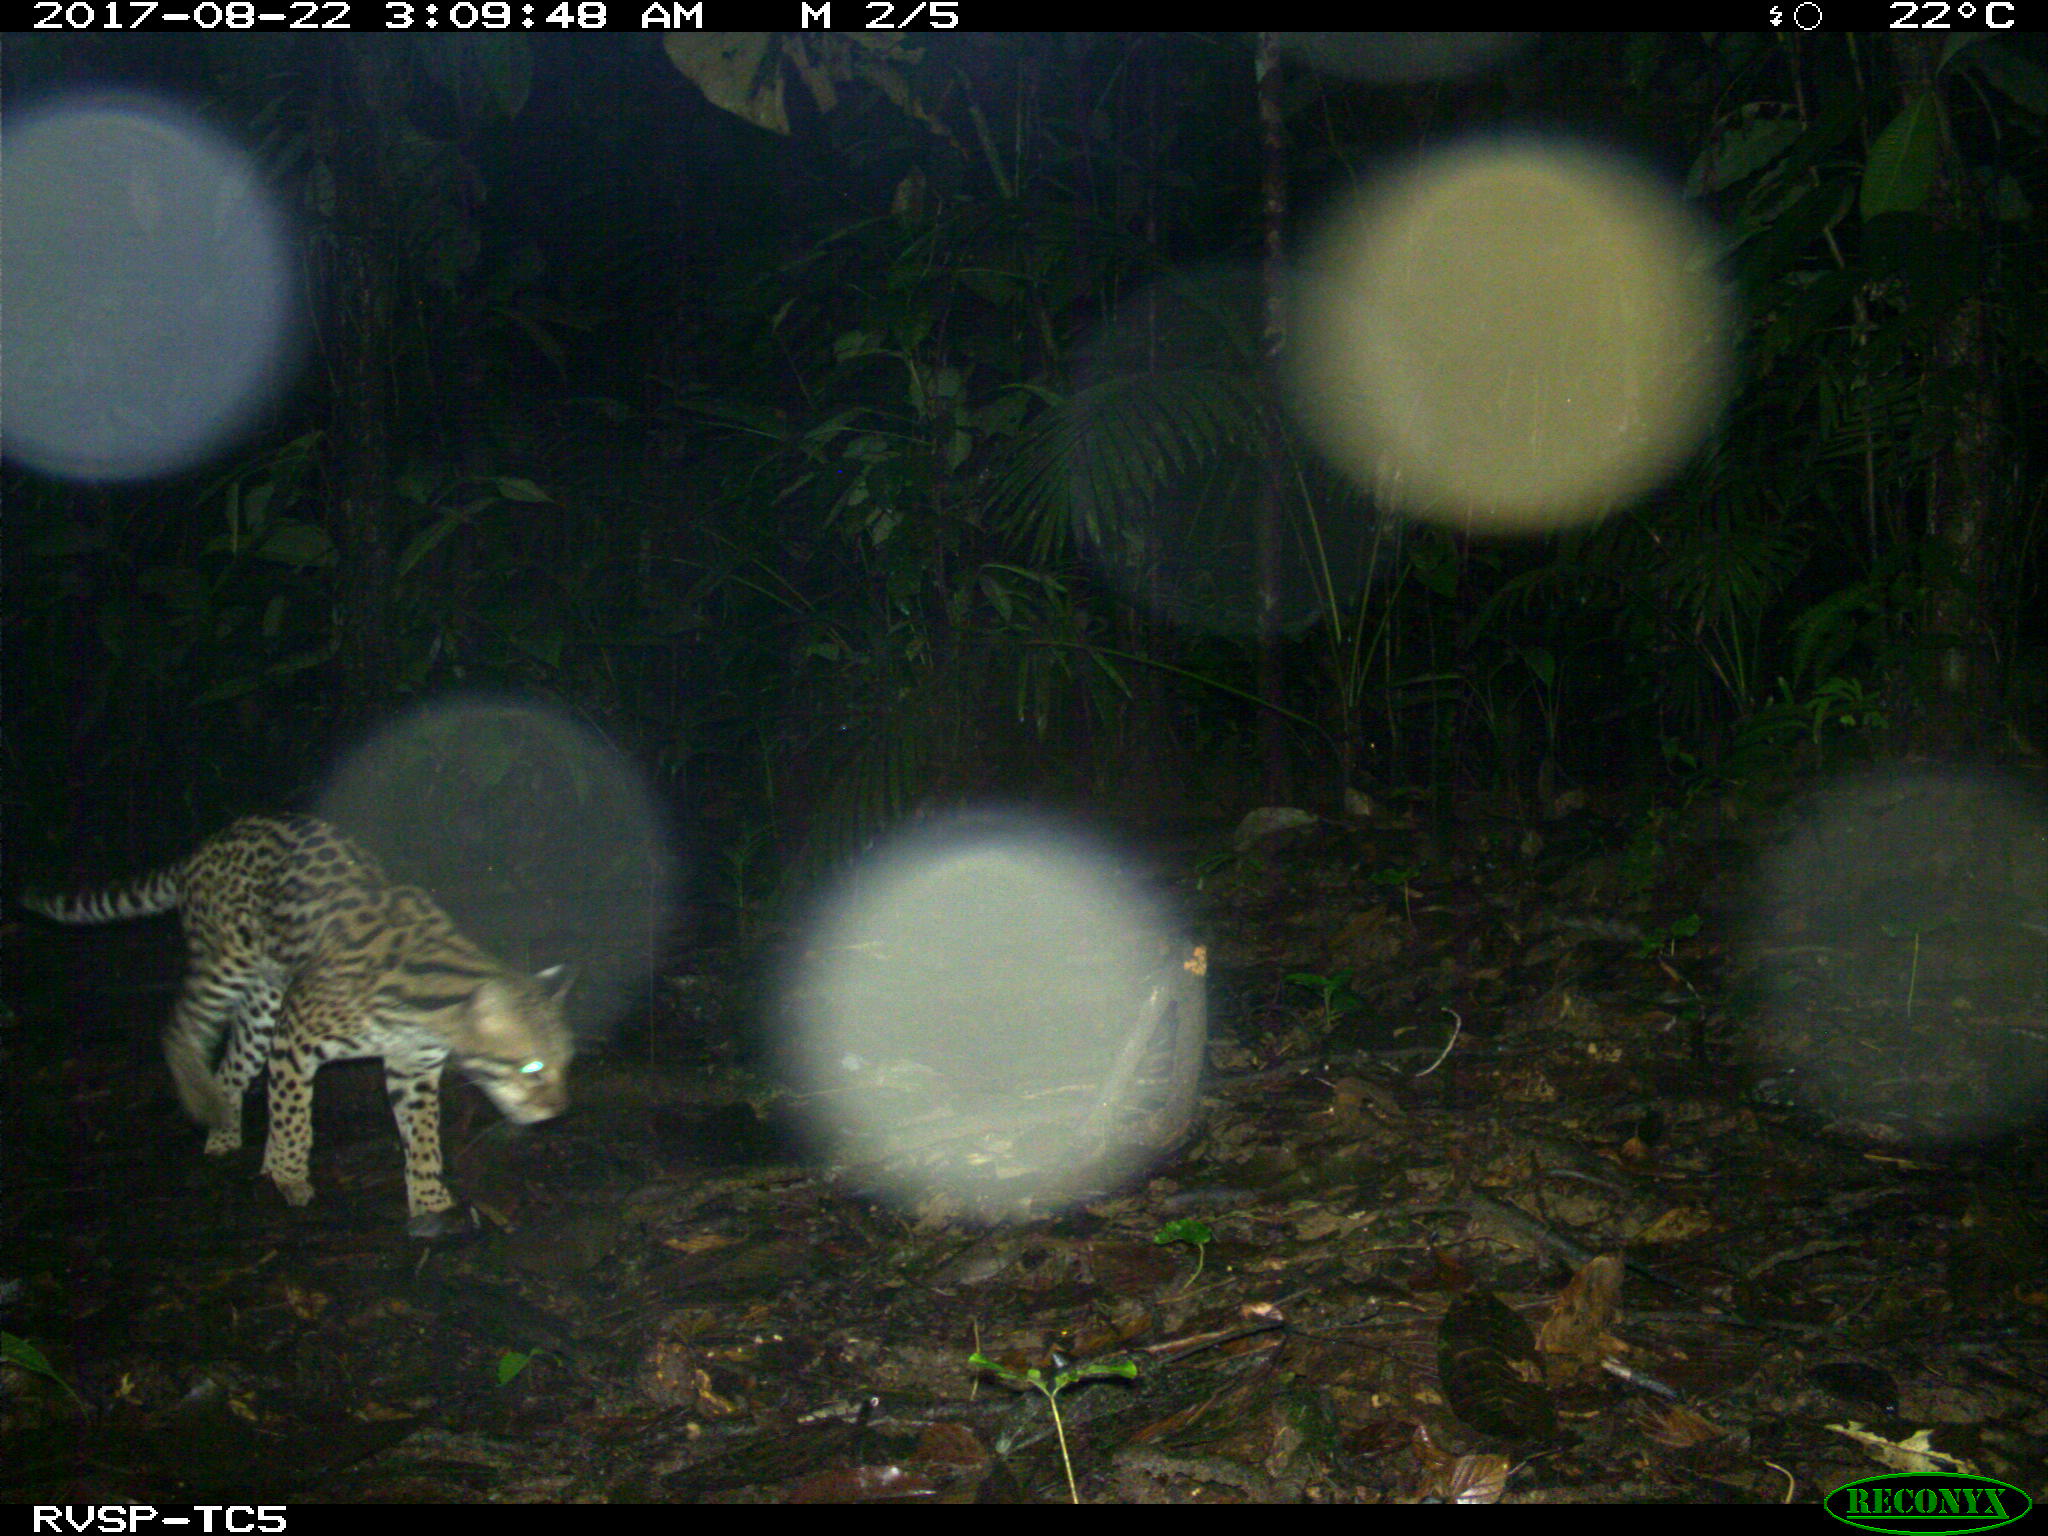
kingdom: Animalia
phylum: Chordata
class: Mammalia
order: Carnivora
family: Felidae
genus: Leopardus
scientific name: Leopardus pardalis
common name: Ocelot
